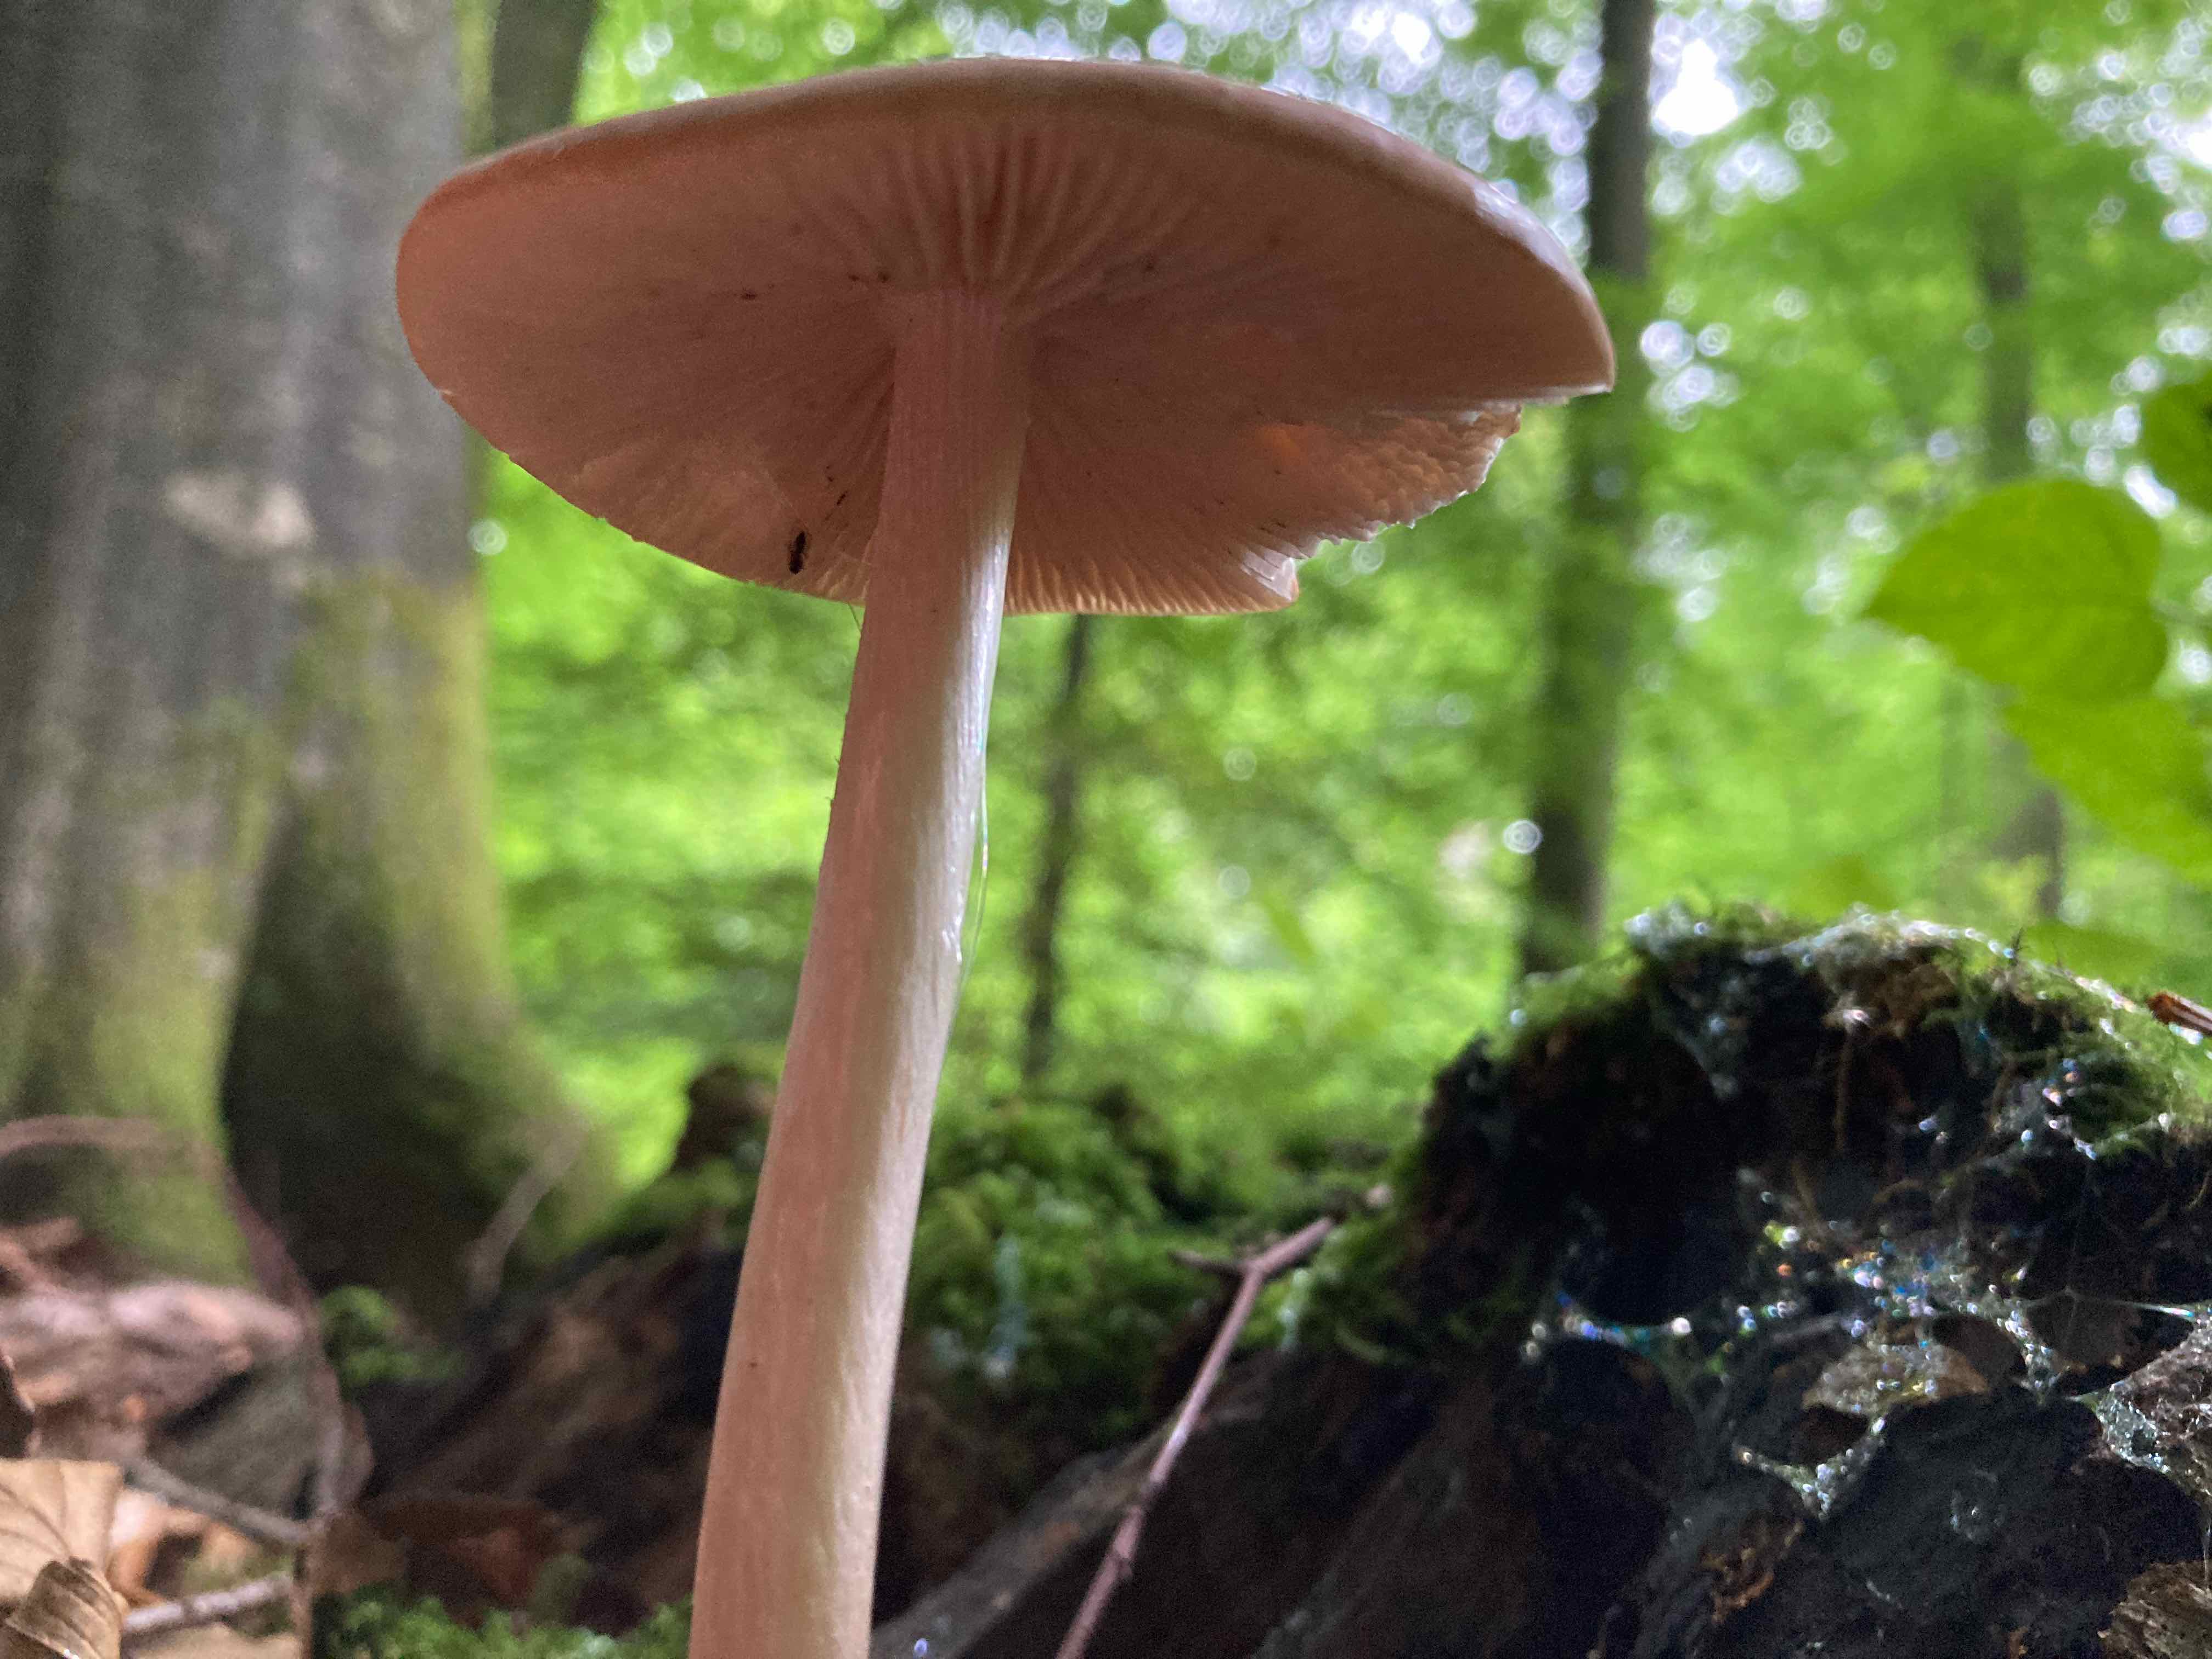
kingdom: Fungi
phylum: Basidiomycota
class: Agaricomycetes
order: Agaricales
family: Physalacriaceae
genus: Hymenopellis
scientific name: Hymenopellis radicata
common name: almindelig pælerodshat
